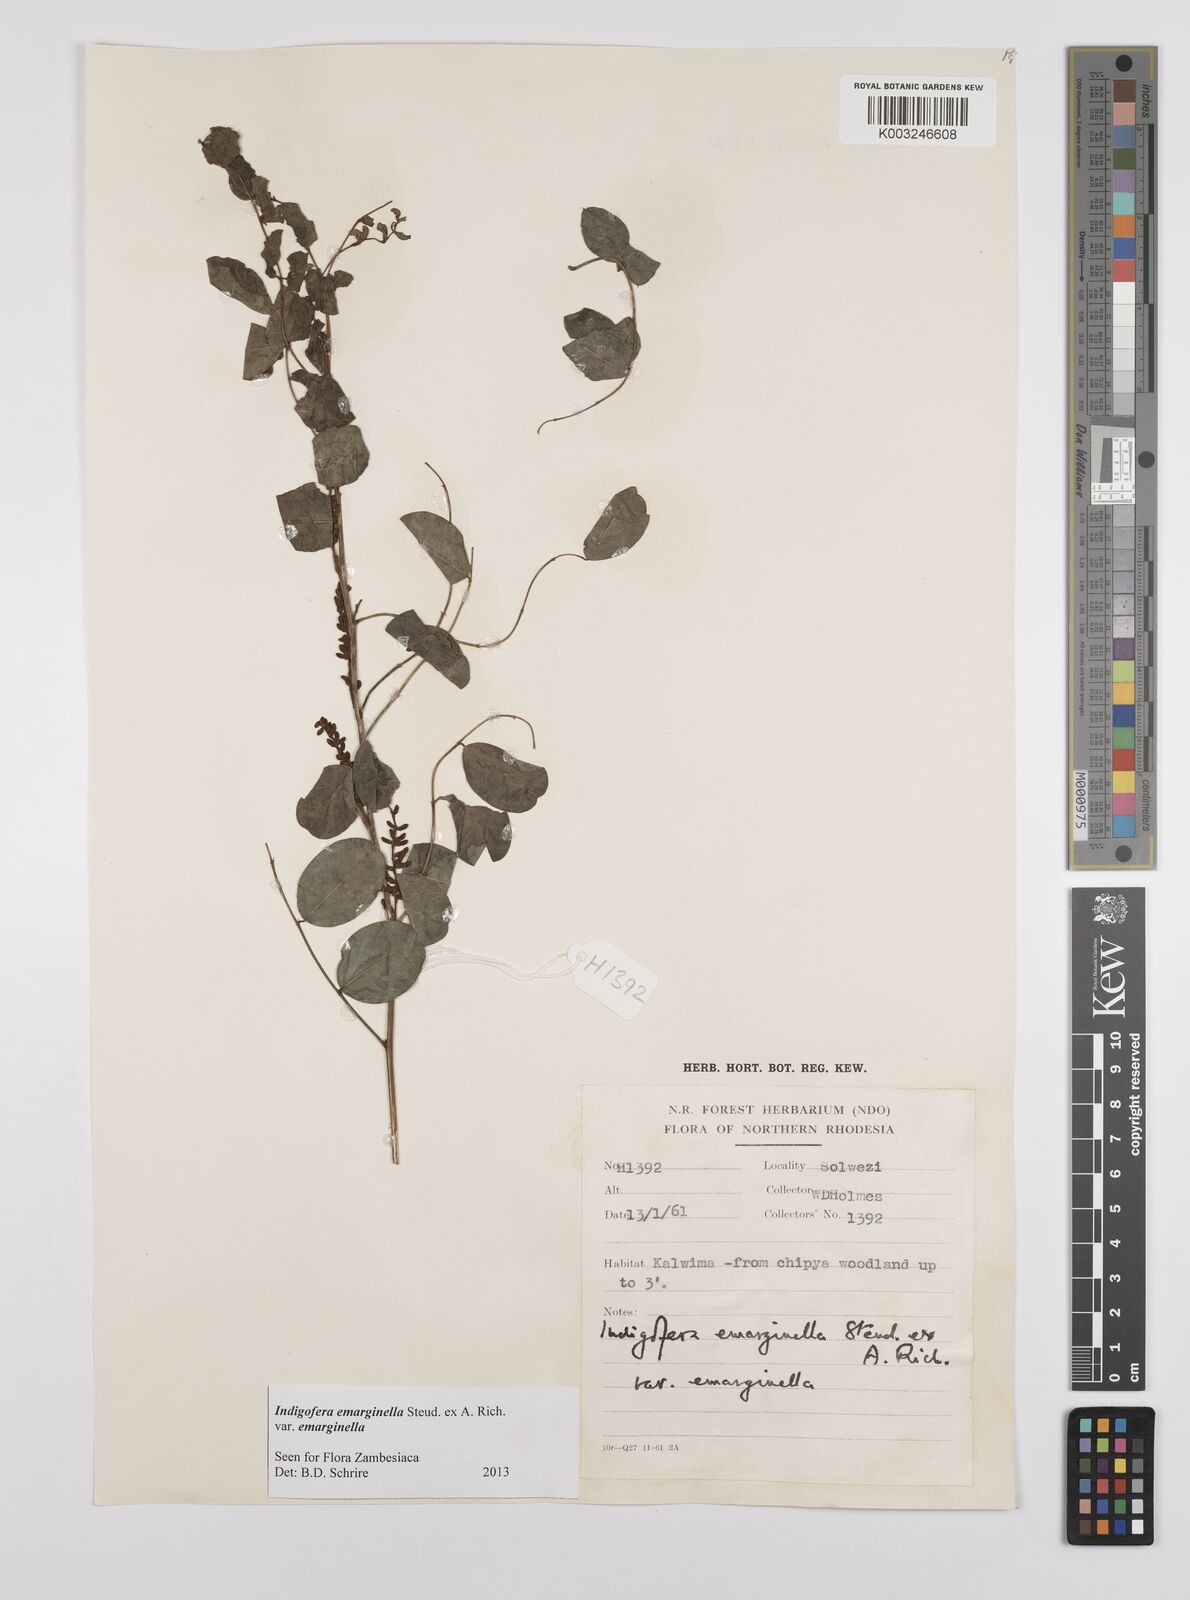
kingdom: Plantae
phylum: Tracheophyta
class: Magnoliopsida
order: Fabales
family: Fabaceae
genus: Indigofera
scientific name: Indigofera emarginella
